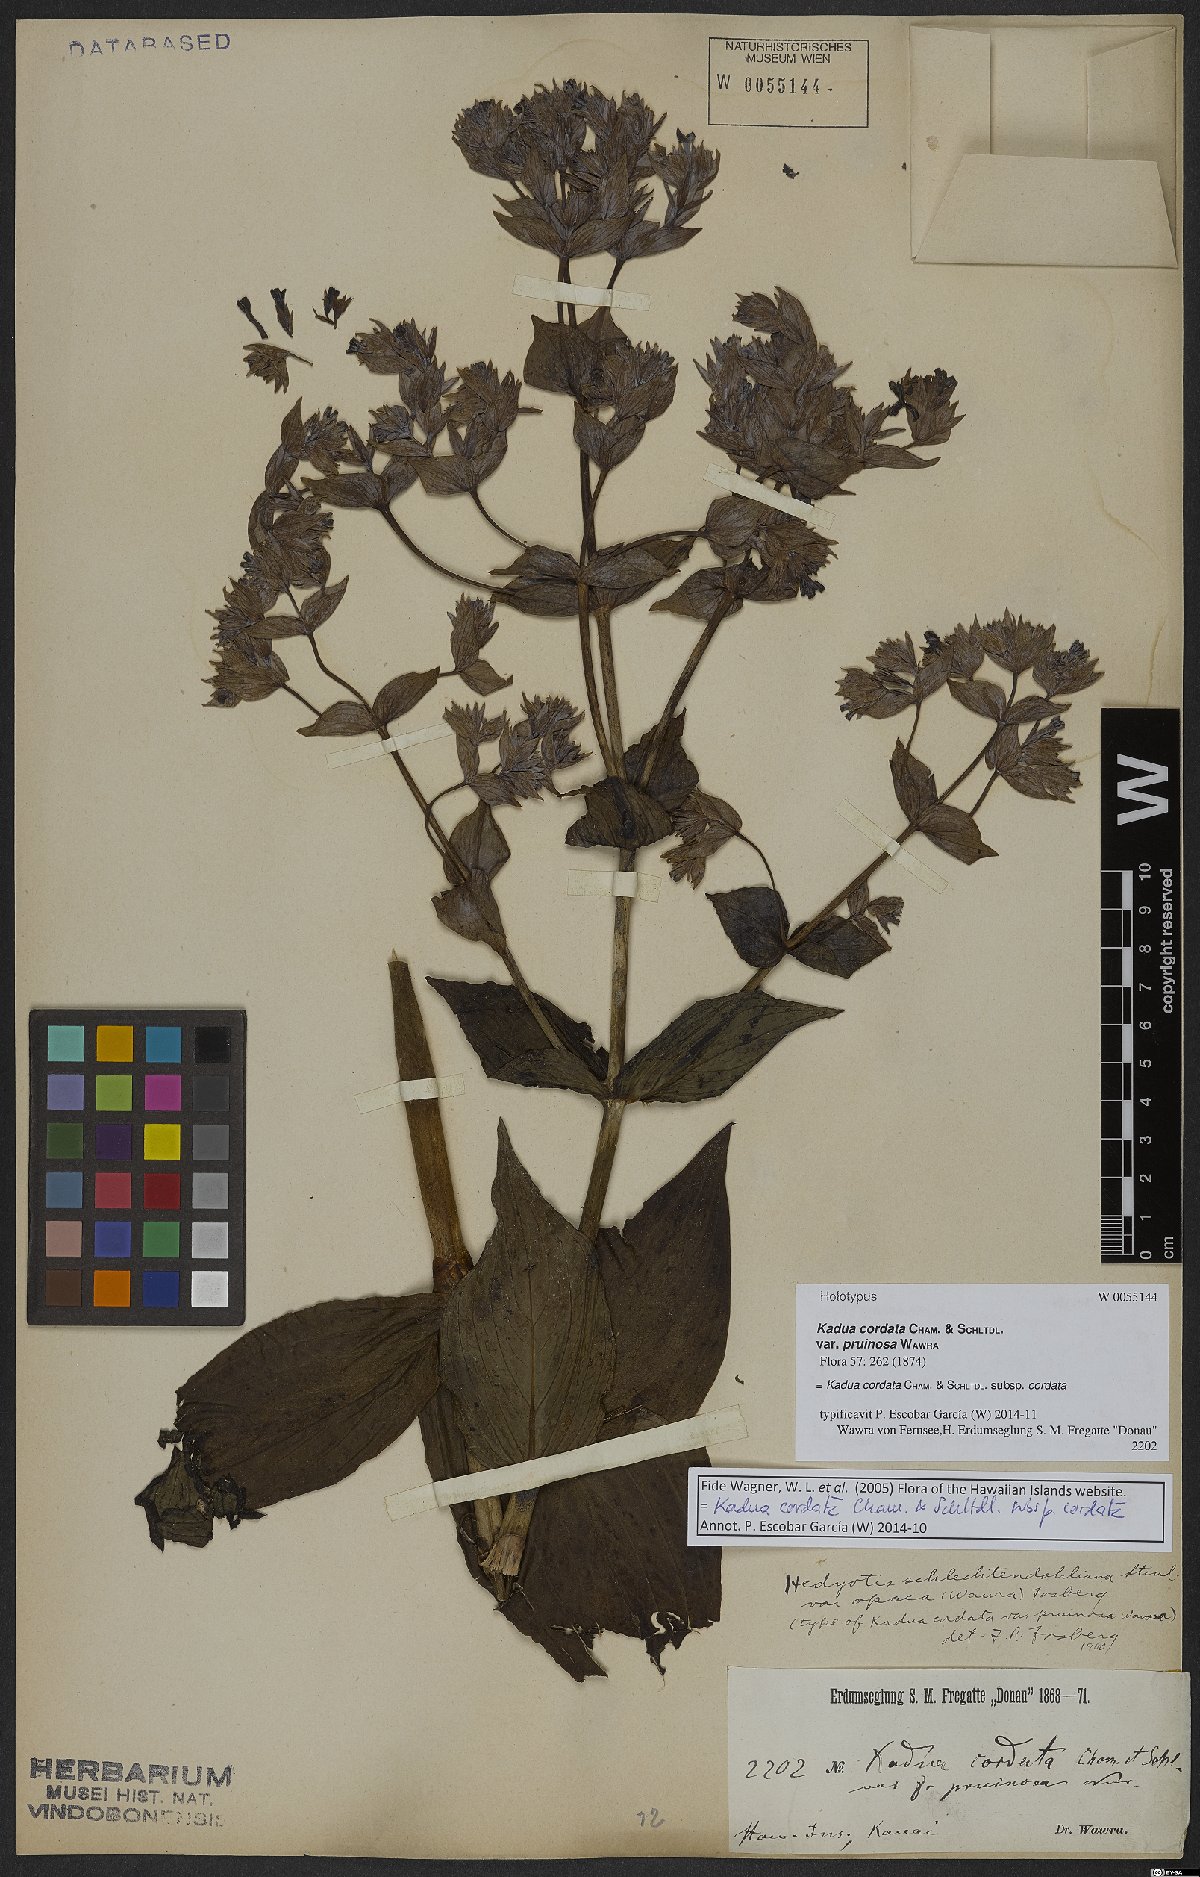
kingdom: Plantae
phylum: Tracheophyta
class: Magnoliopsida
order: Gentianales
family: Rubiaceae
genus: Kadua
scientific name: Kadua cordata
